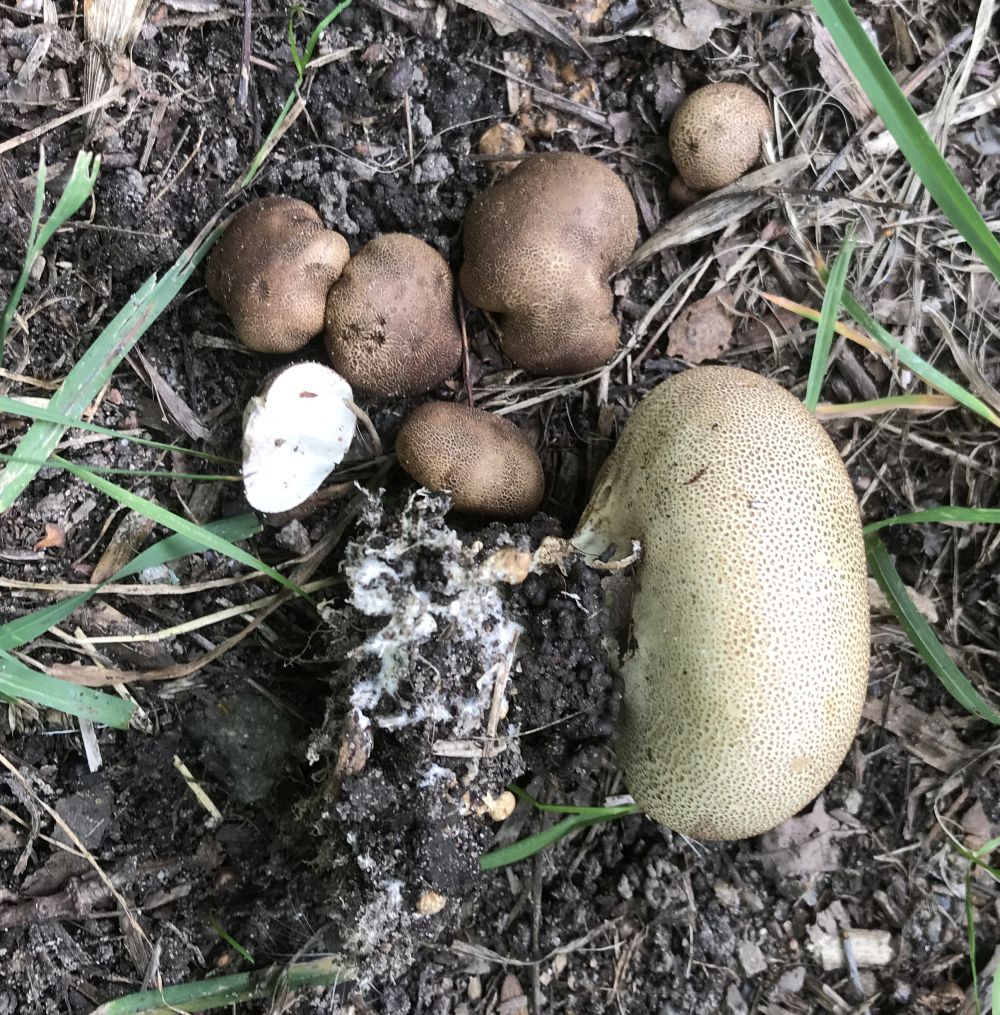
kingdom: Fungi
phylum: Basidiomycota
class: Agaricomycetes
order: Boletales
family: Sclerodermataceae
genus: Scleroderma
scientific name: Scleroderma verrucosum
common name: stilket bruskbold
